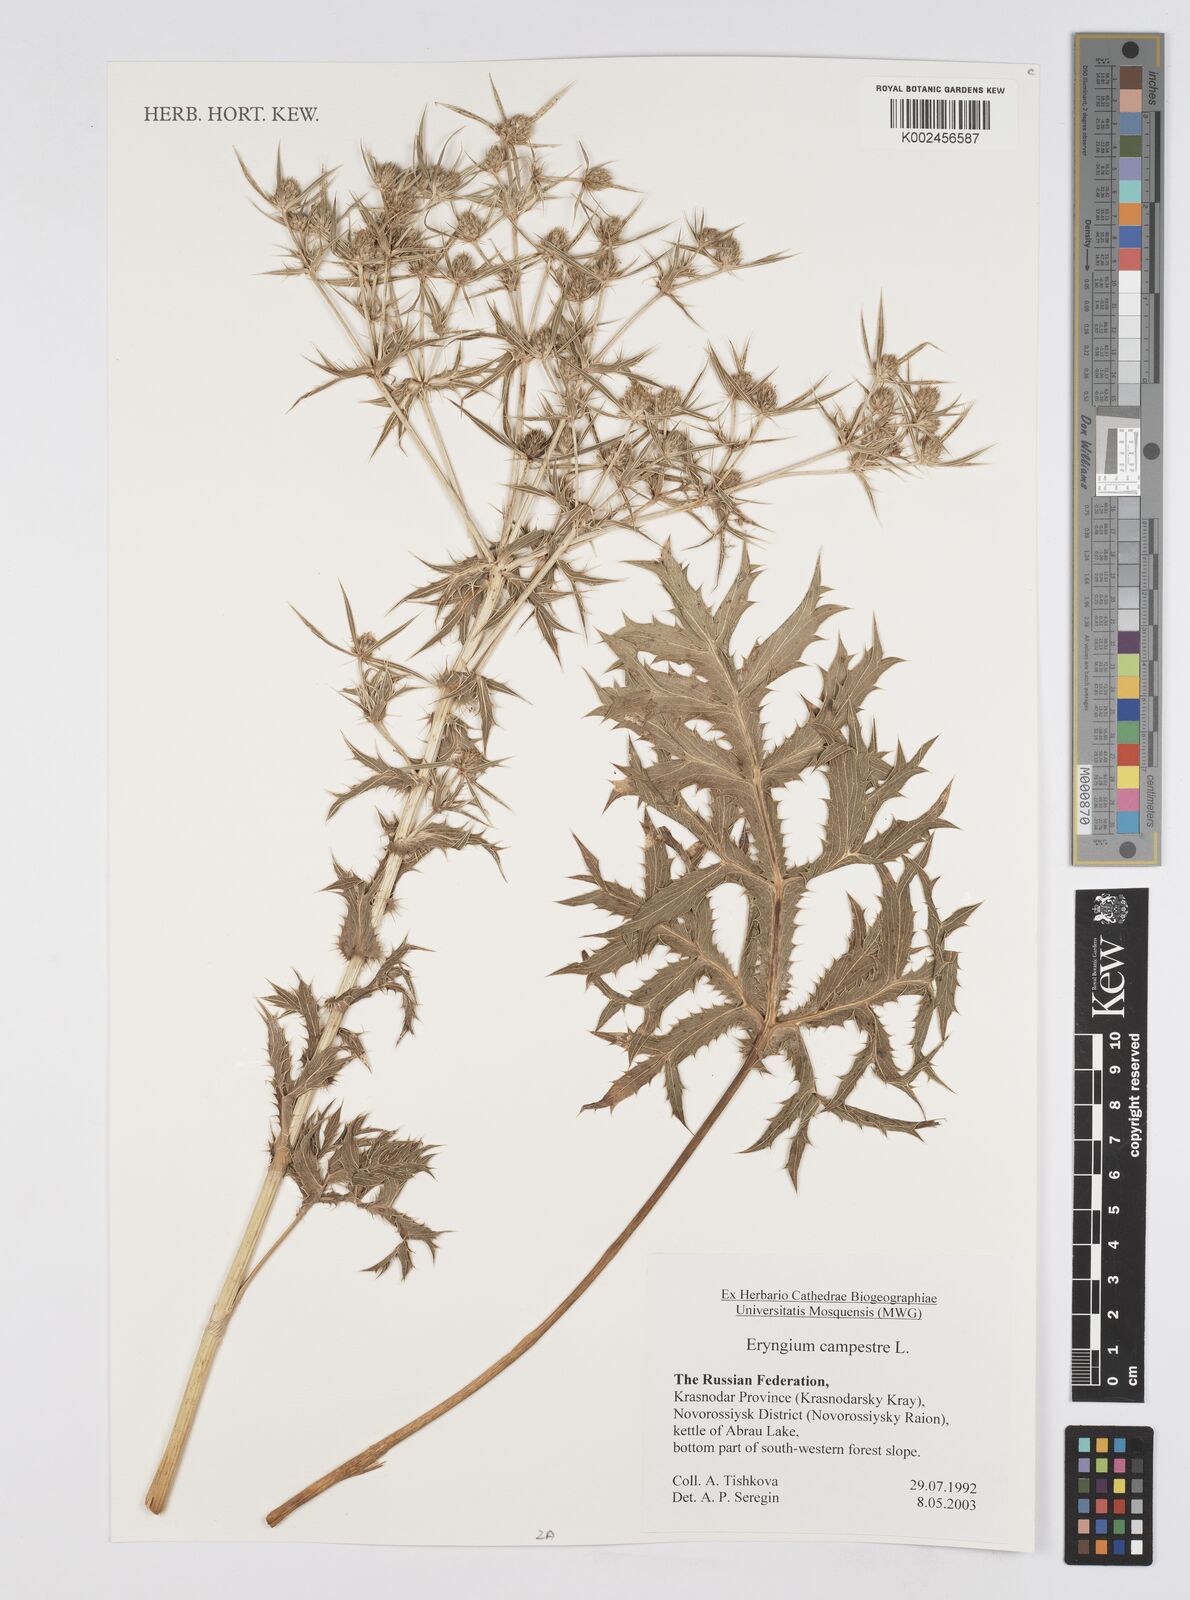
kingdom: Plantae
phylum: Tracheophyta
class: Magnoliopsida
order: Apiales
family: Apiaceae
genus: Eryngium
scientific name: Eryngium campestre
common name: Field eryngo
